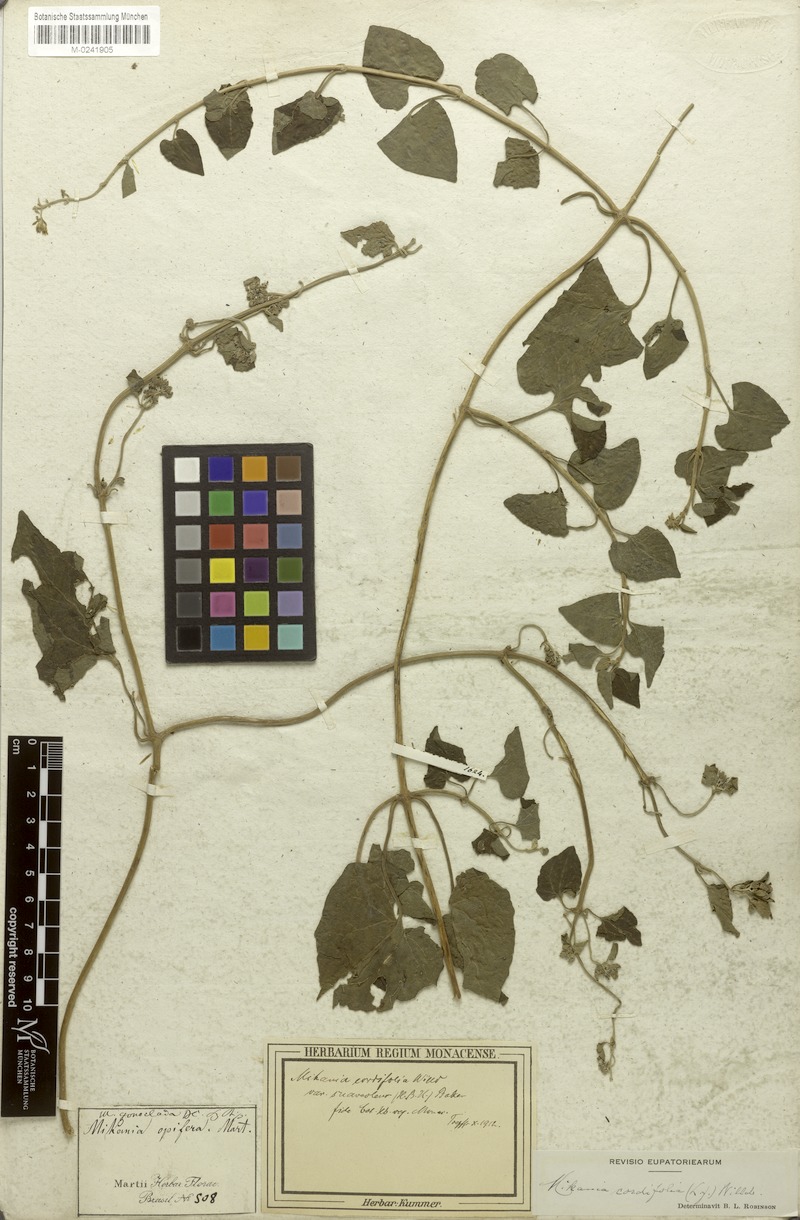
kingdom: Plantae
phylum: Tracheophyta
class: Magnoliopsida
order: Asterales
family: Asteraceae
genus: Mikania
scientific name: Mikania cordifolia
